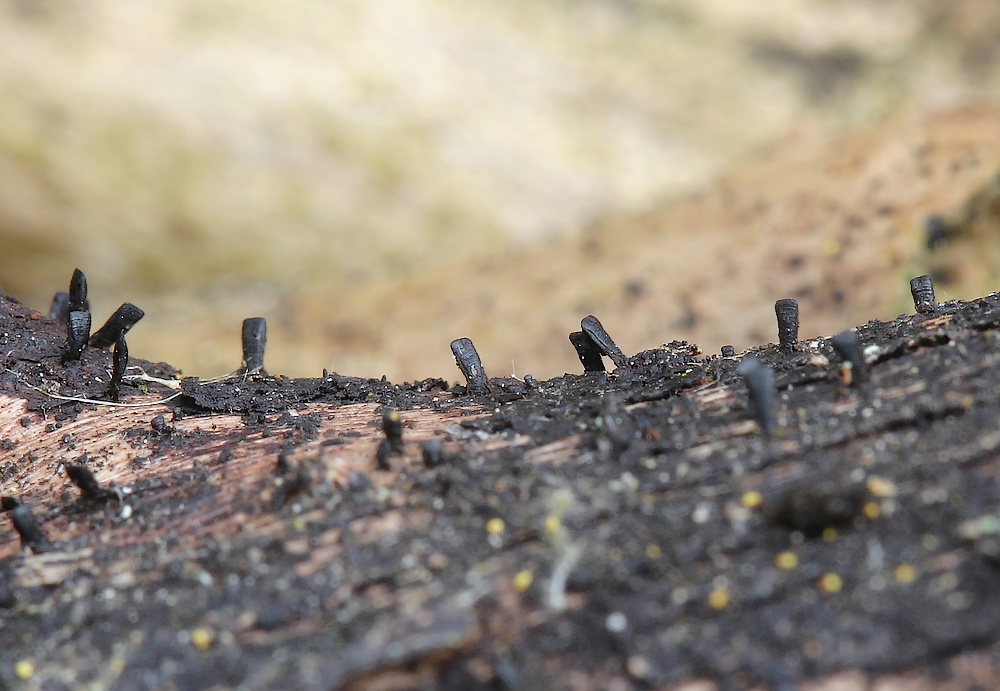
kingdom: Fungi
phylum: Ascomycota
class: Eurotiomycetes
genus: Glyphium
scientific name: Glyphium elatum
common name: kuløkse
